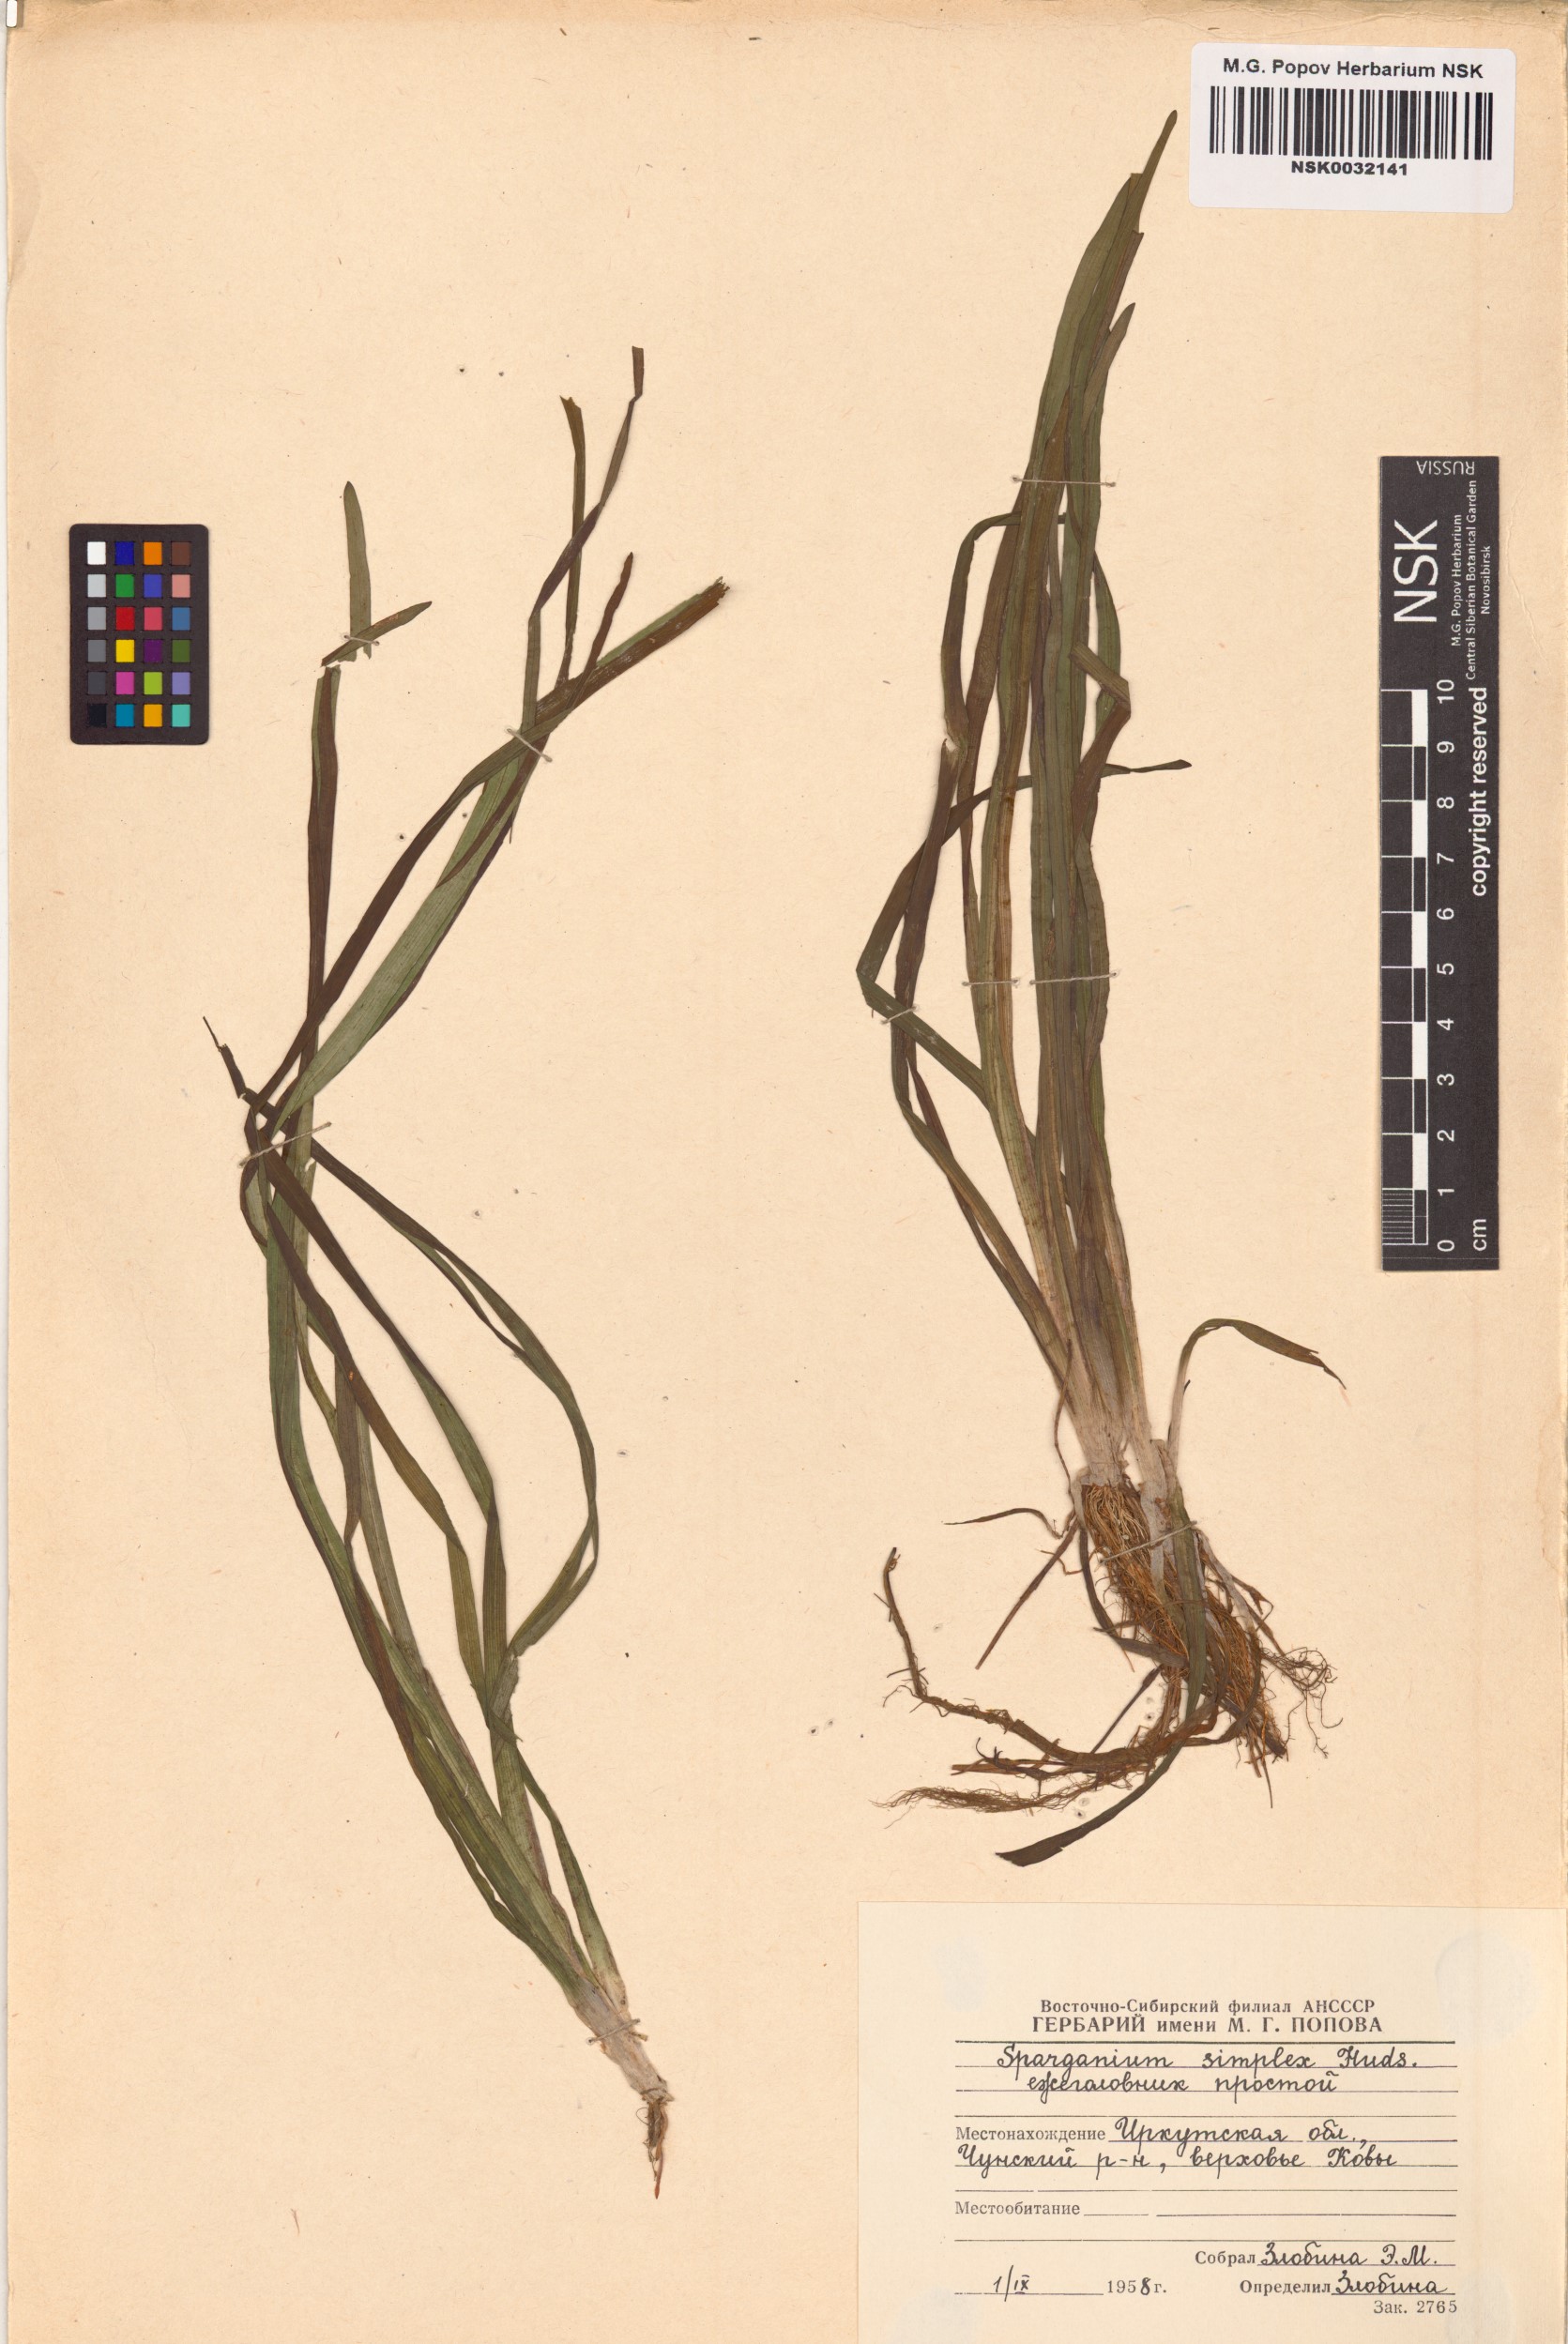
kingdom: Plantae
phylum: Tracheophyta
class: Liliopsida
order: Poales
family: Typhaceae
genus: Sparganium
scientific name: Sparganium emersum
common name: Unbranched bur-reed
